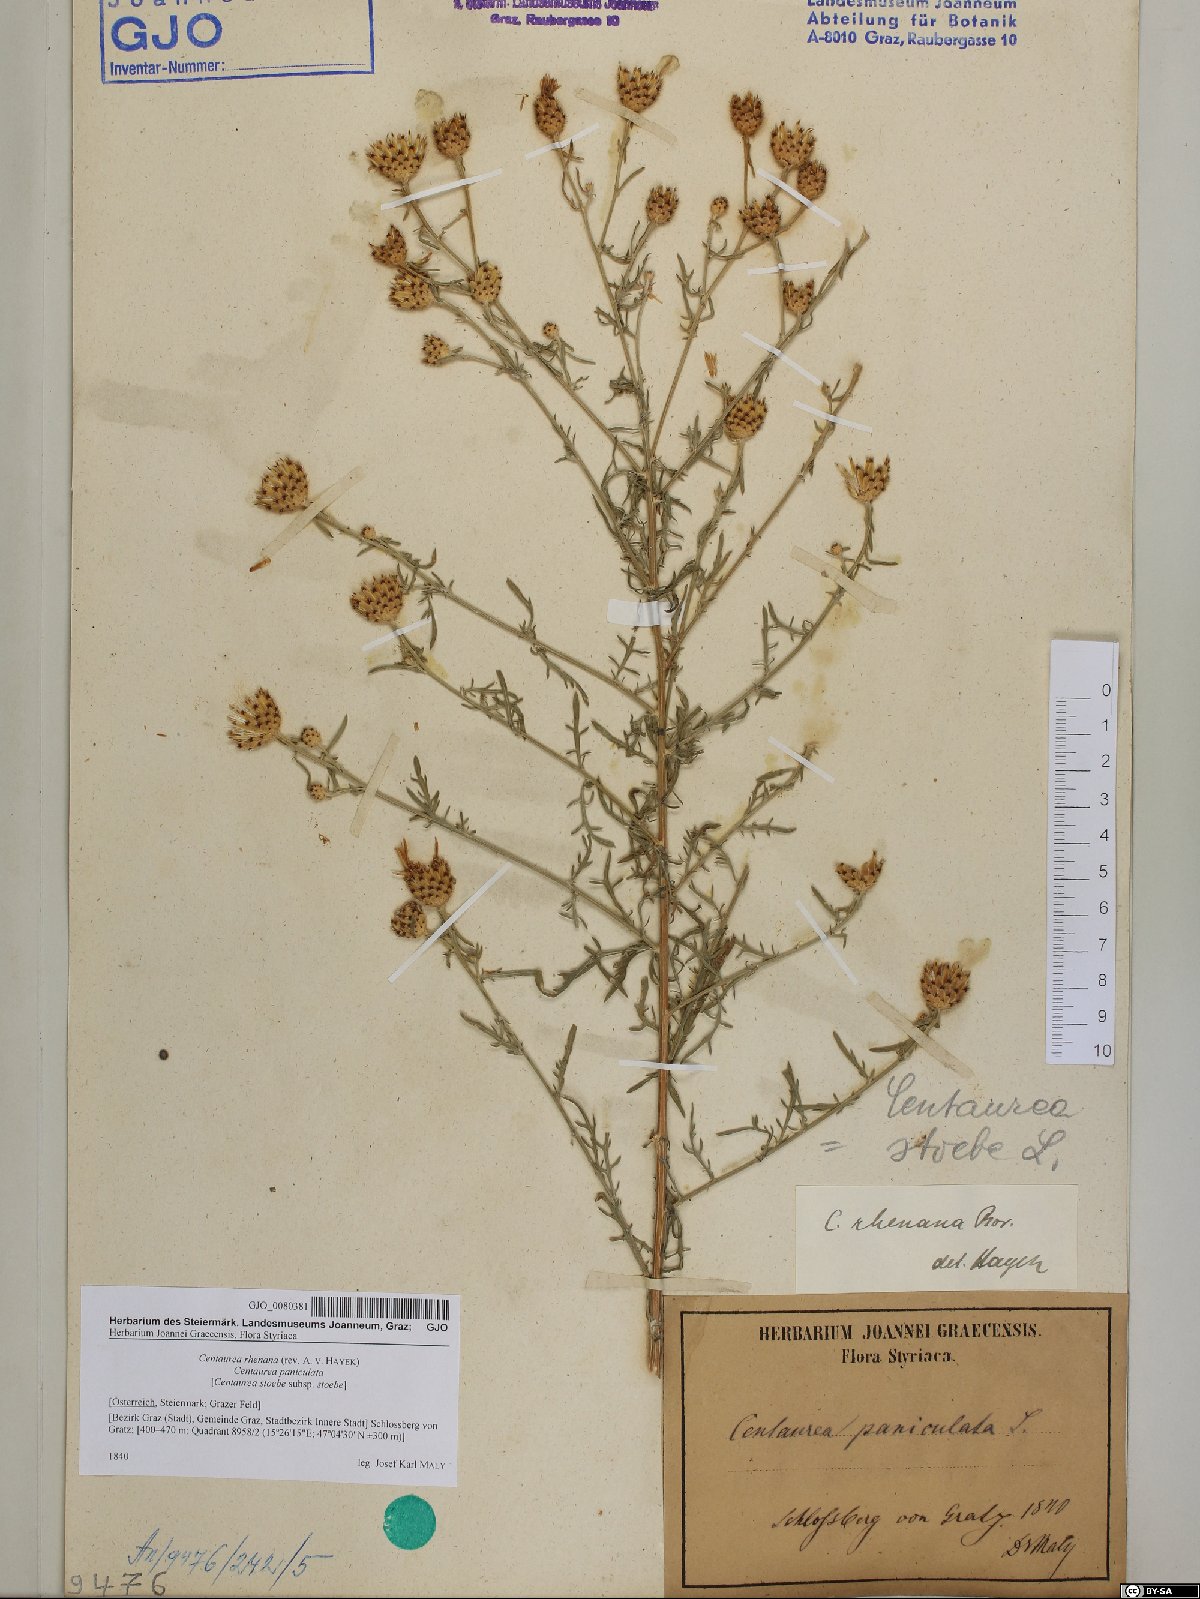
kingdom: Plantae
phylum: Tracheophyta
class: Magnoliopsida
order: Asterales
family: Asteraceae
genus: Centaurea
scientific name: Centaurea stoebe
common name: Spotted knapweed
